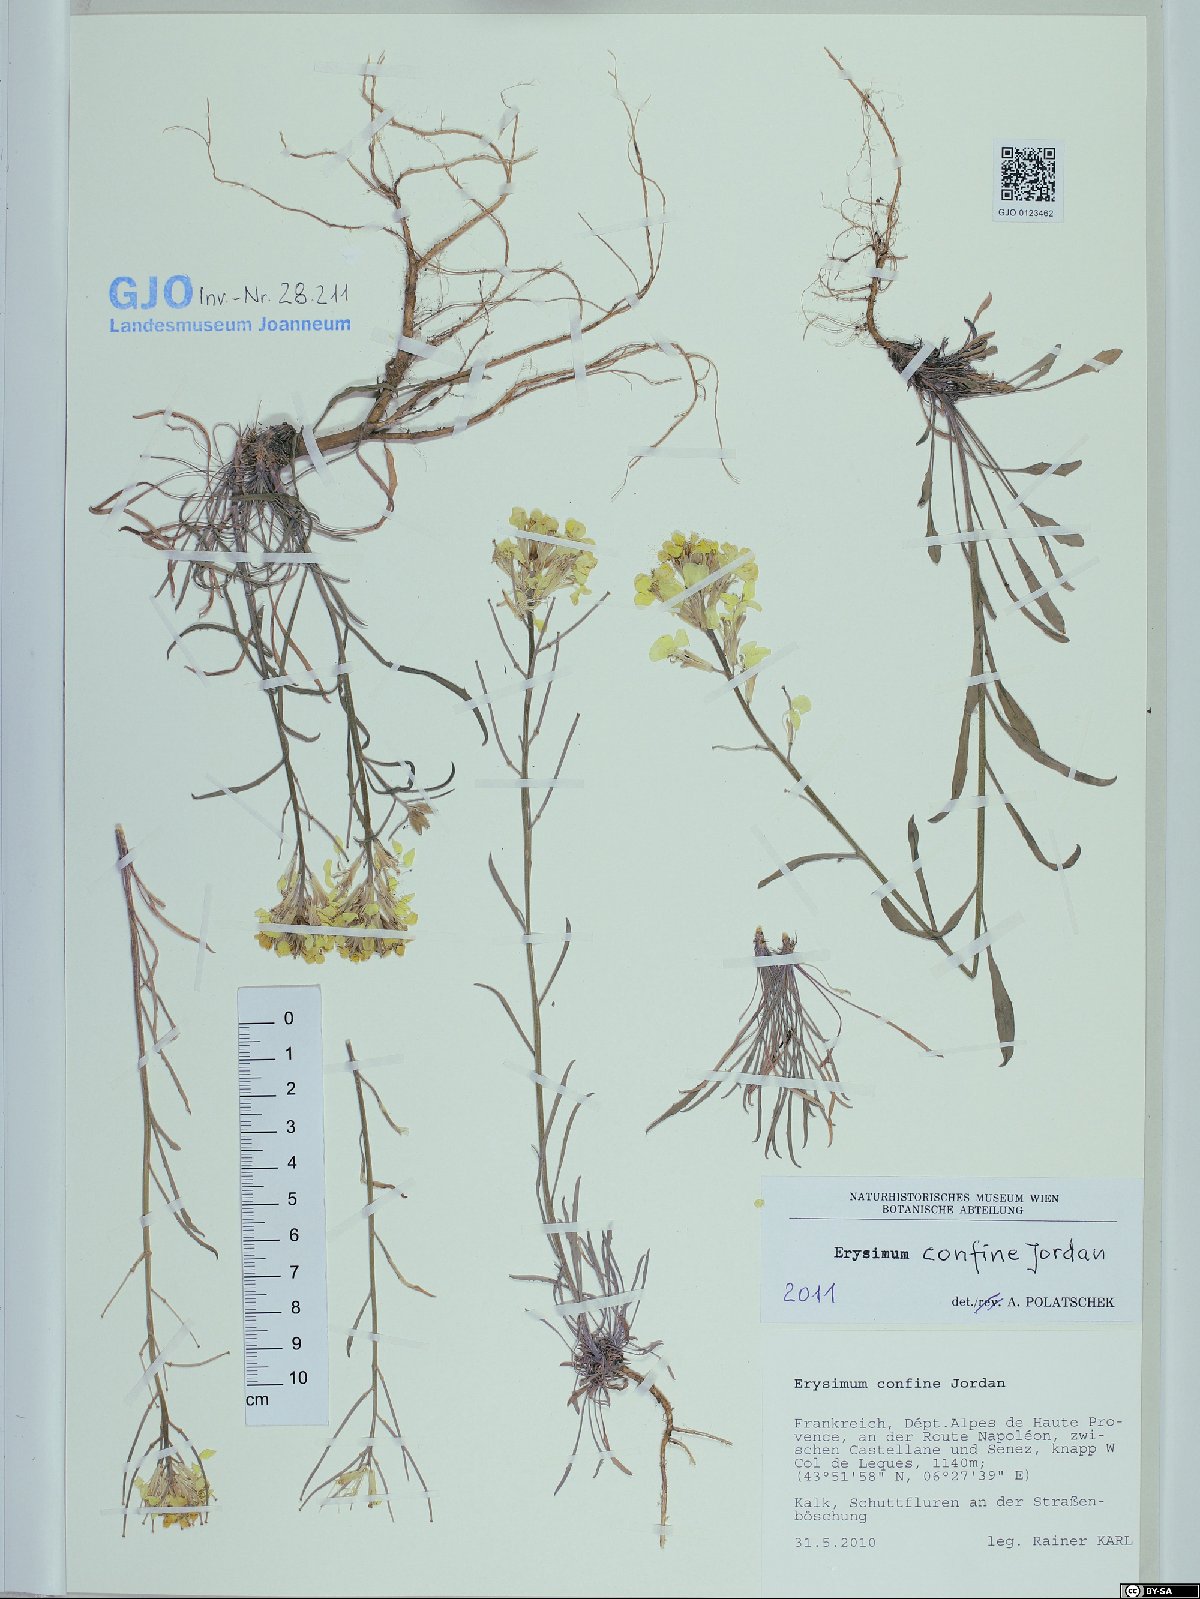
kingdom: Plantae
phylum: Tracheophyta
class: Magnoliopsida
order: Brassicales
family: Brassicaceae
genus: Erysimum
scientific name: Erysimum confine
